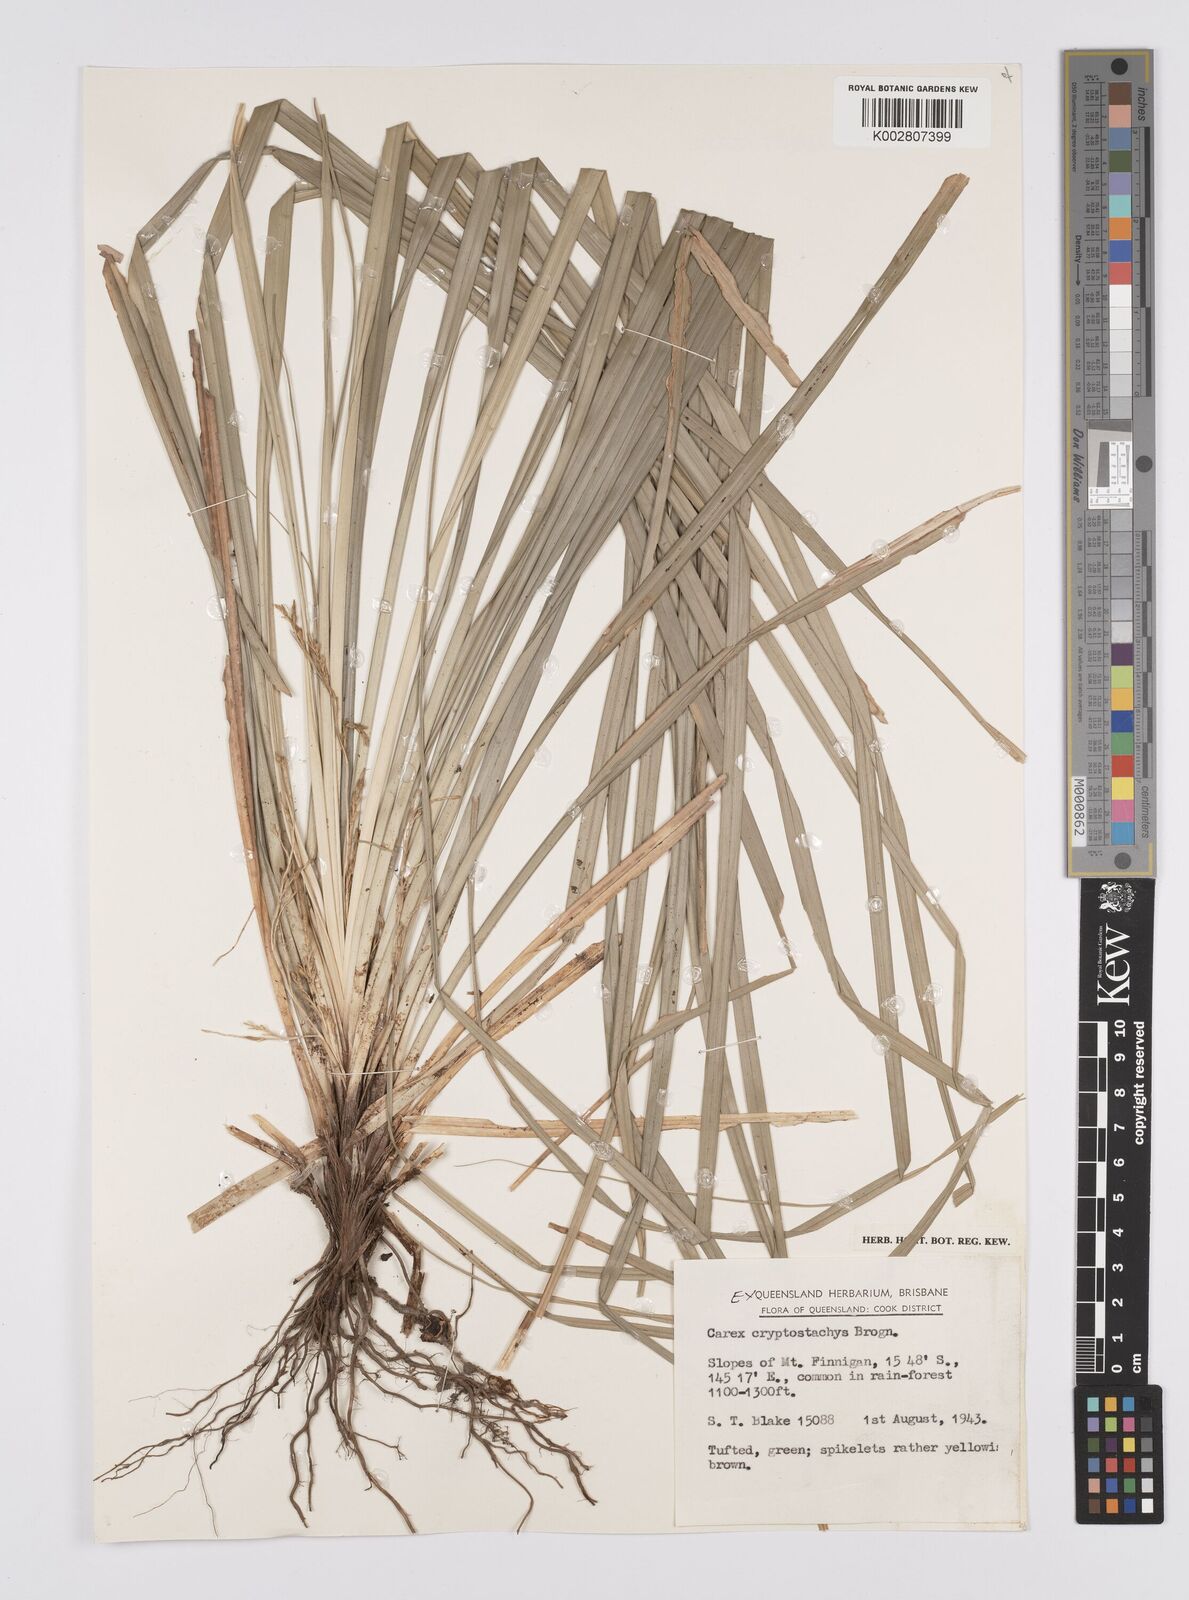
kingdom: Plantae
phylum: Tracheophyta
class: Liliopsida
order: Poales
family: Cyperaceae
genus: Carex
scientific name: Carex cryptostachys
